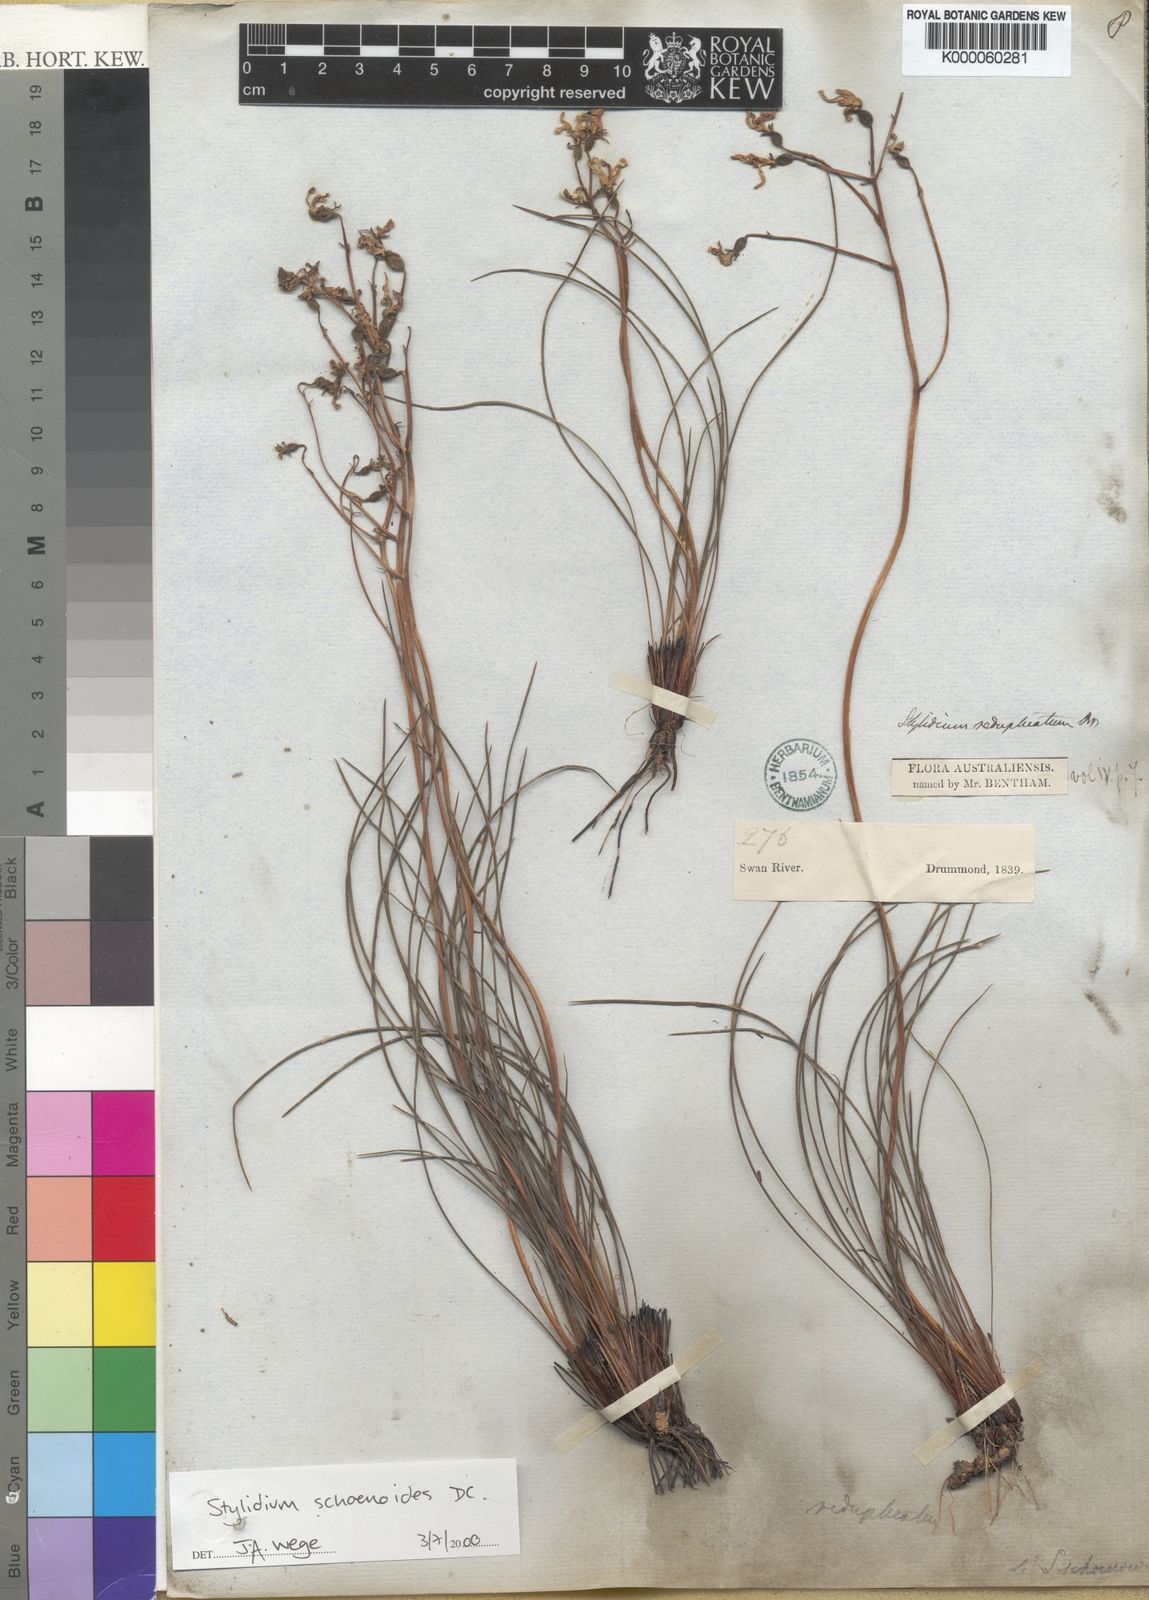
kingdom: Plantae
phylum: Tracheophyta
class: Magnoliopsida
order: Asterales
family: Stylidiaceae
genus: Stylidium
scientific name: Stylidium schoenoides
